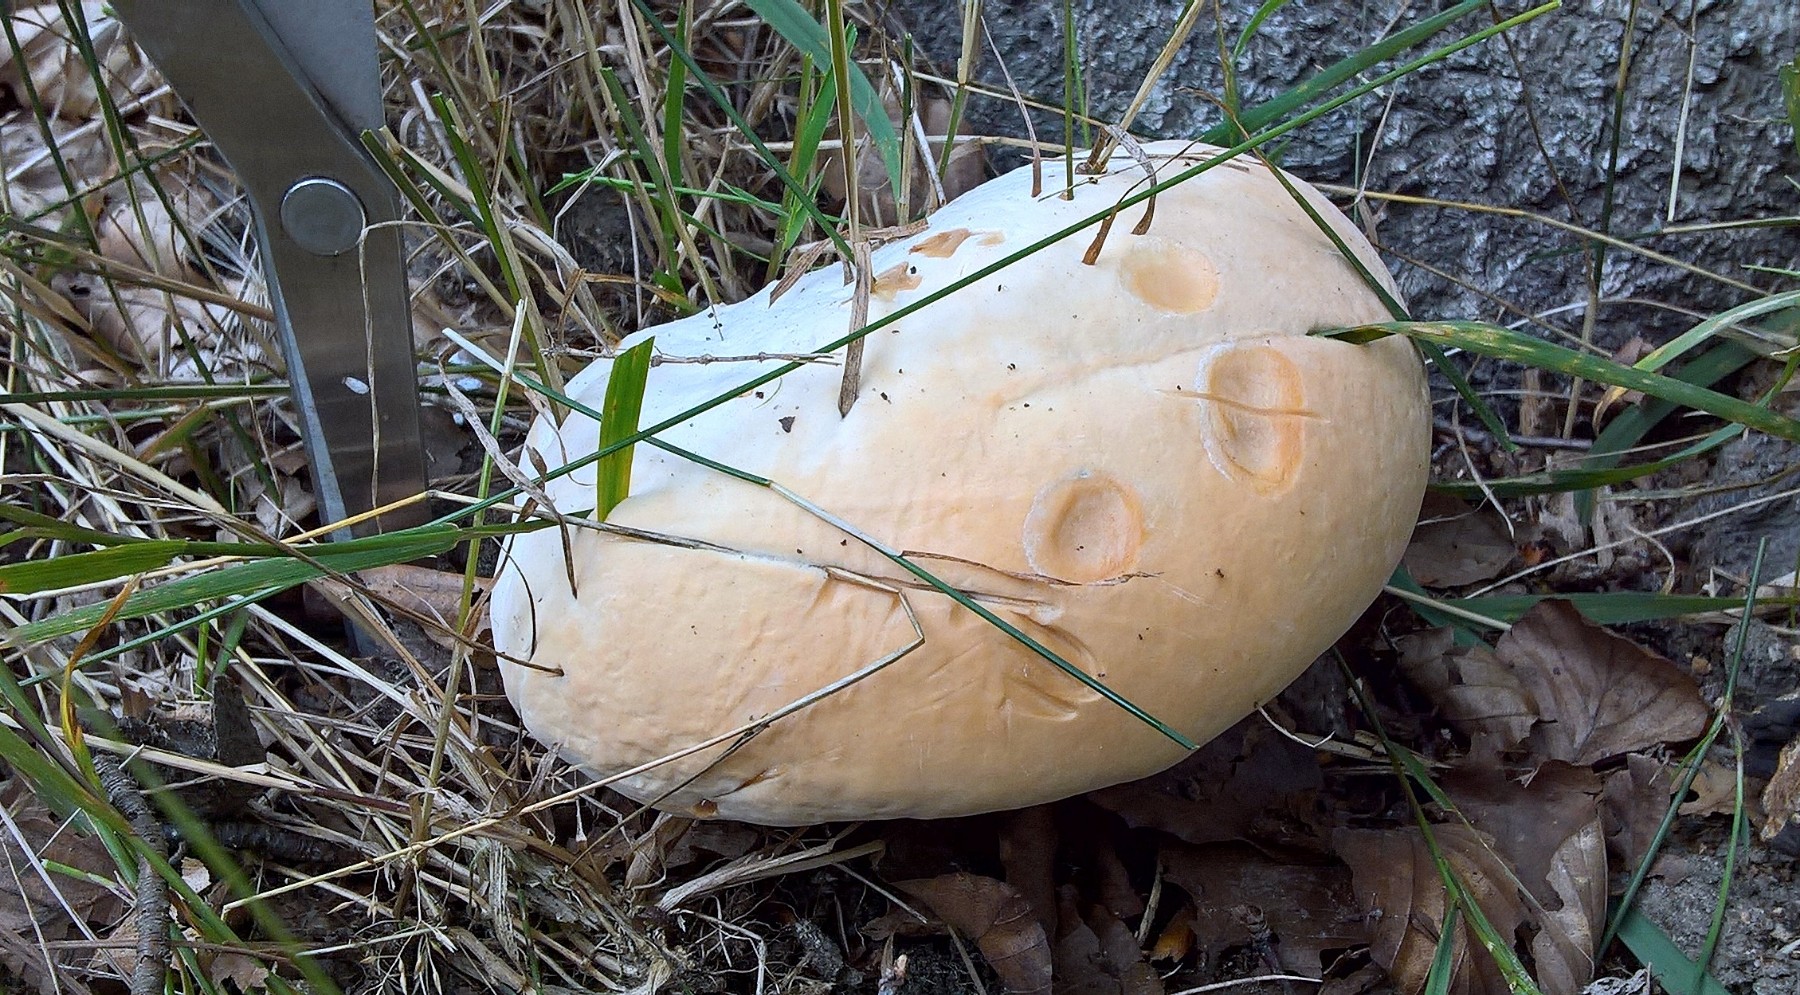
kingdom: Fungi
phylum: Basidiomycota
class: Agaricomycetes
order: Polyporales
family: Polyporaceae
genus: Ganoderma
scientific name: Ganoderma resinaceum
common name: gyldenbrun lakporesvamp
